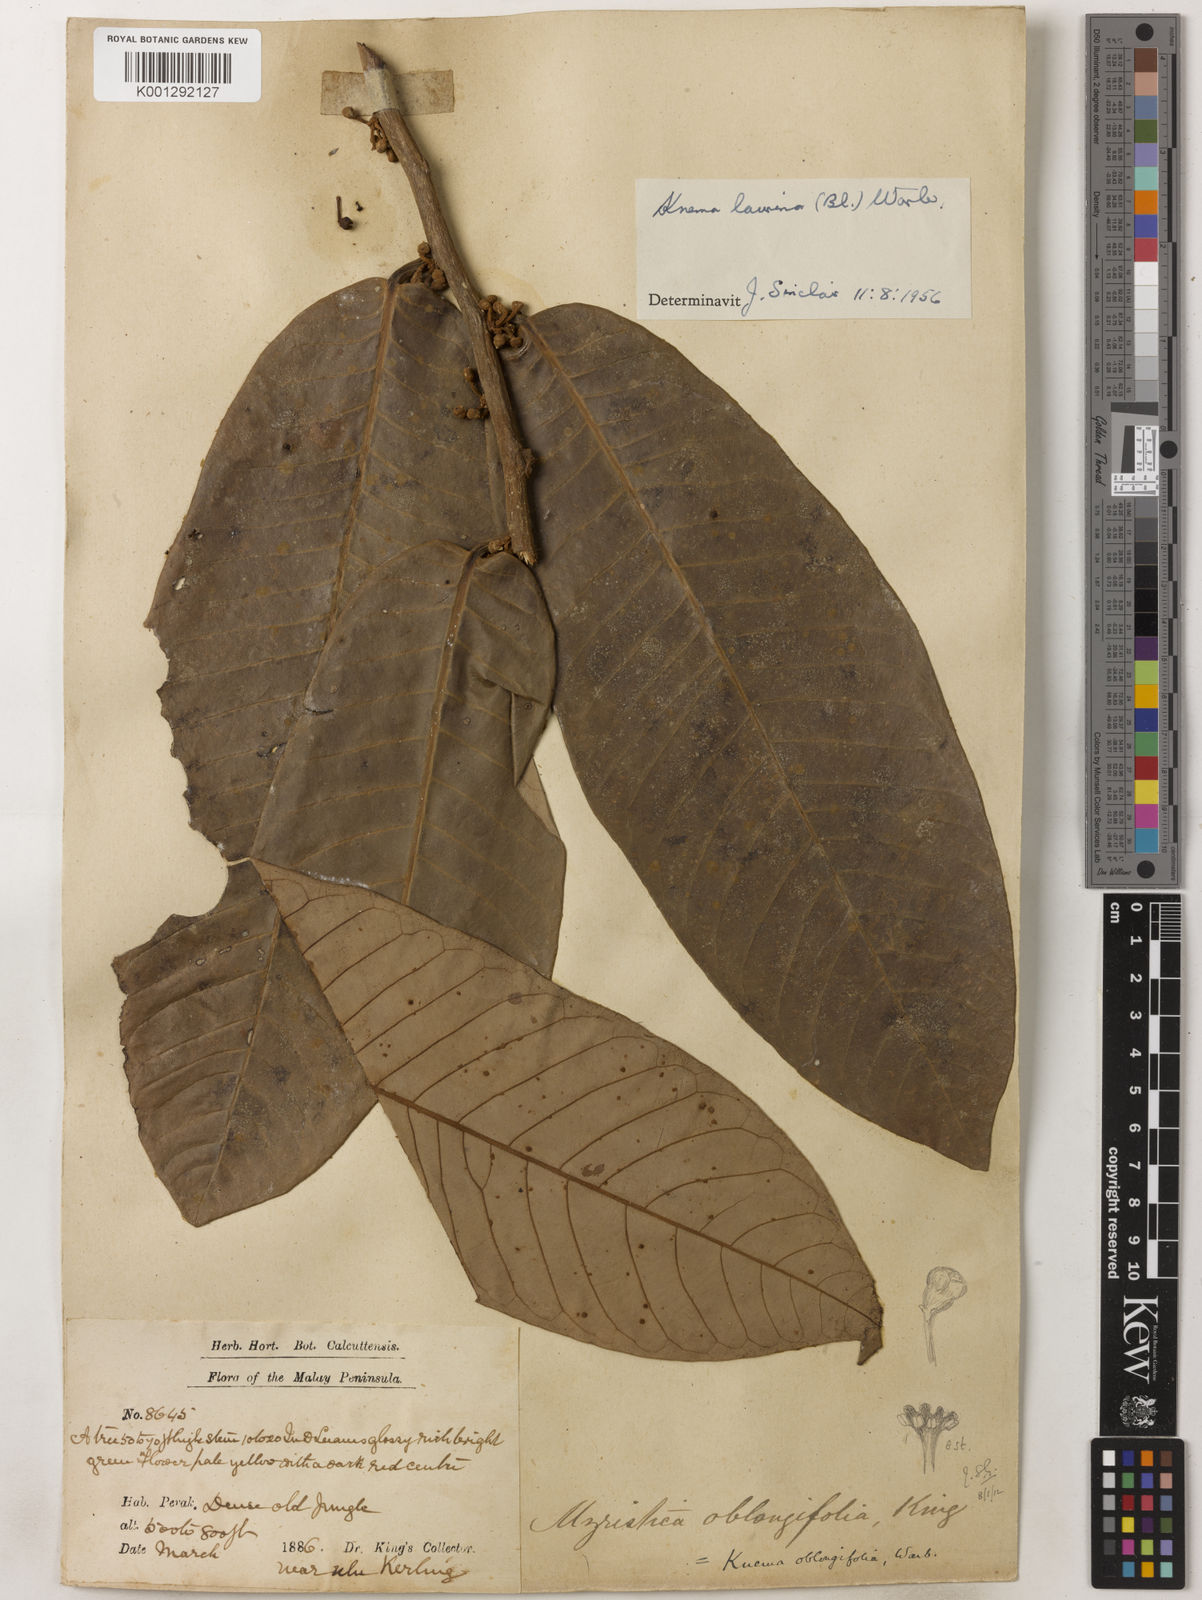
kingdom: Plantae
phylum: Tracheophyta
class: Magnoliopsida
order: Magnoliales
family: Myristicaceae
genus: Knema
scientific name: Knema laurina
